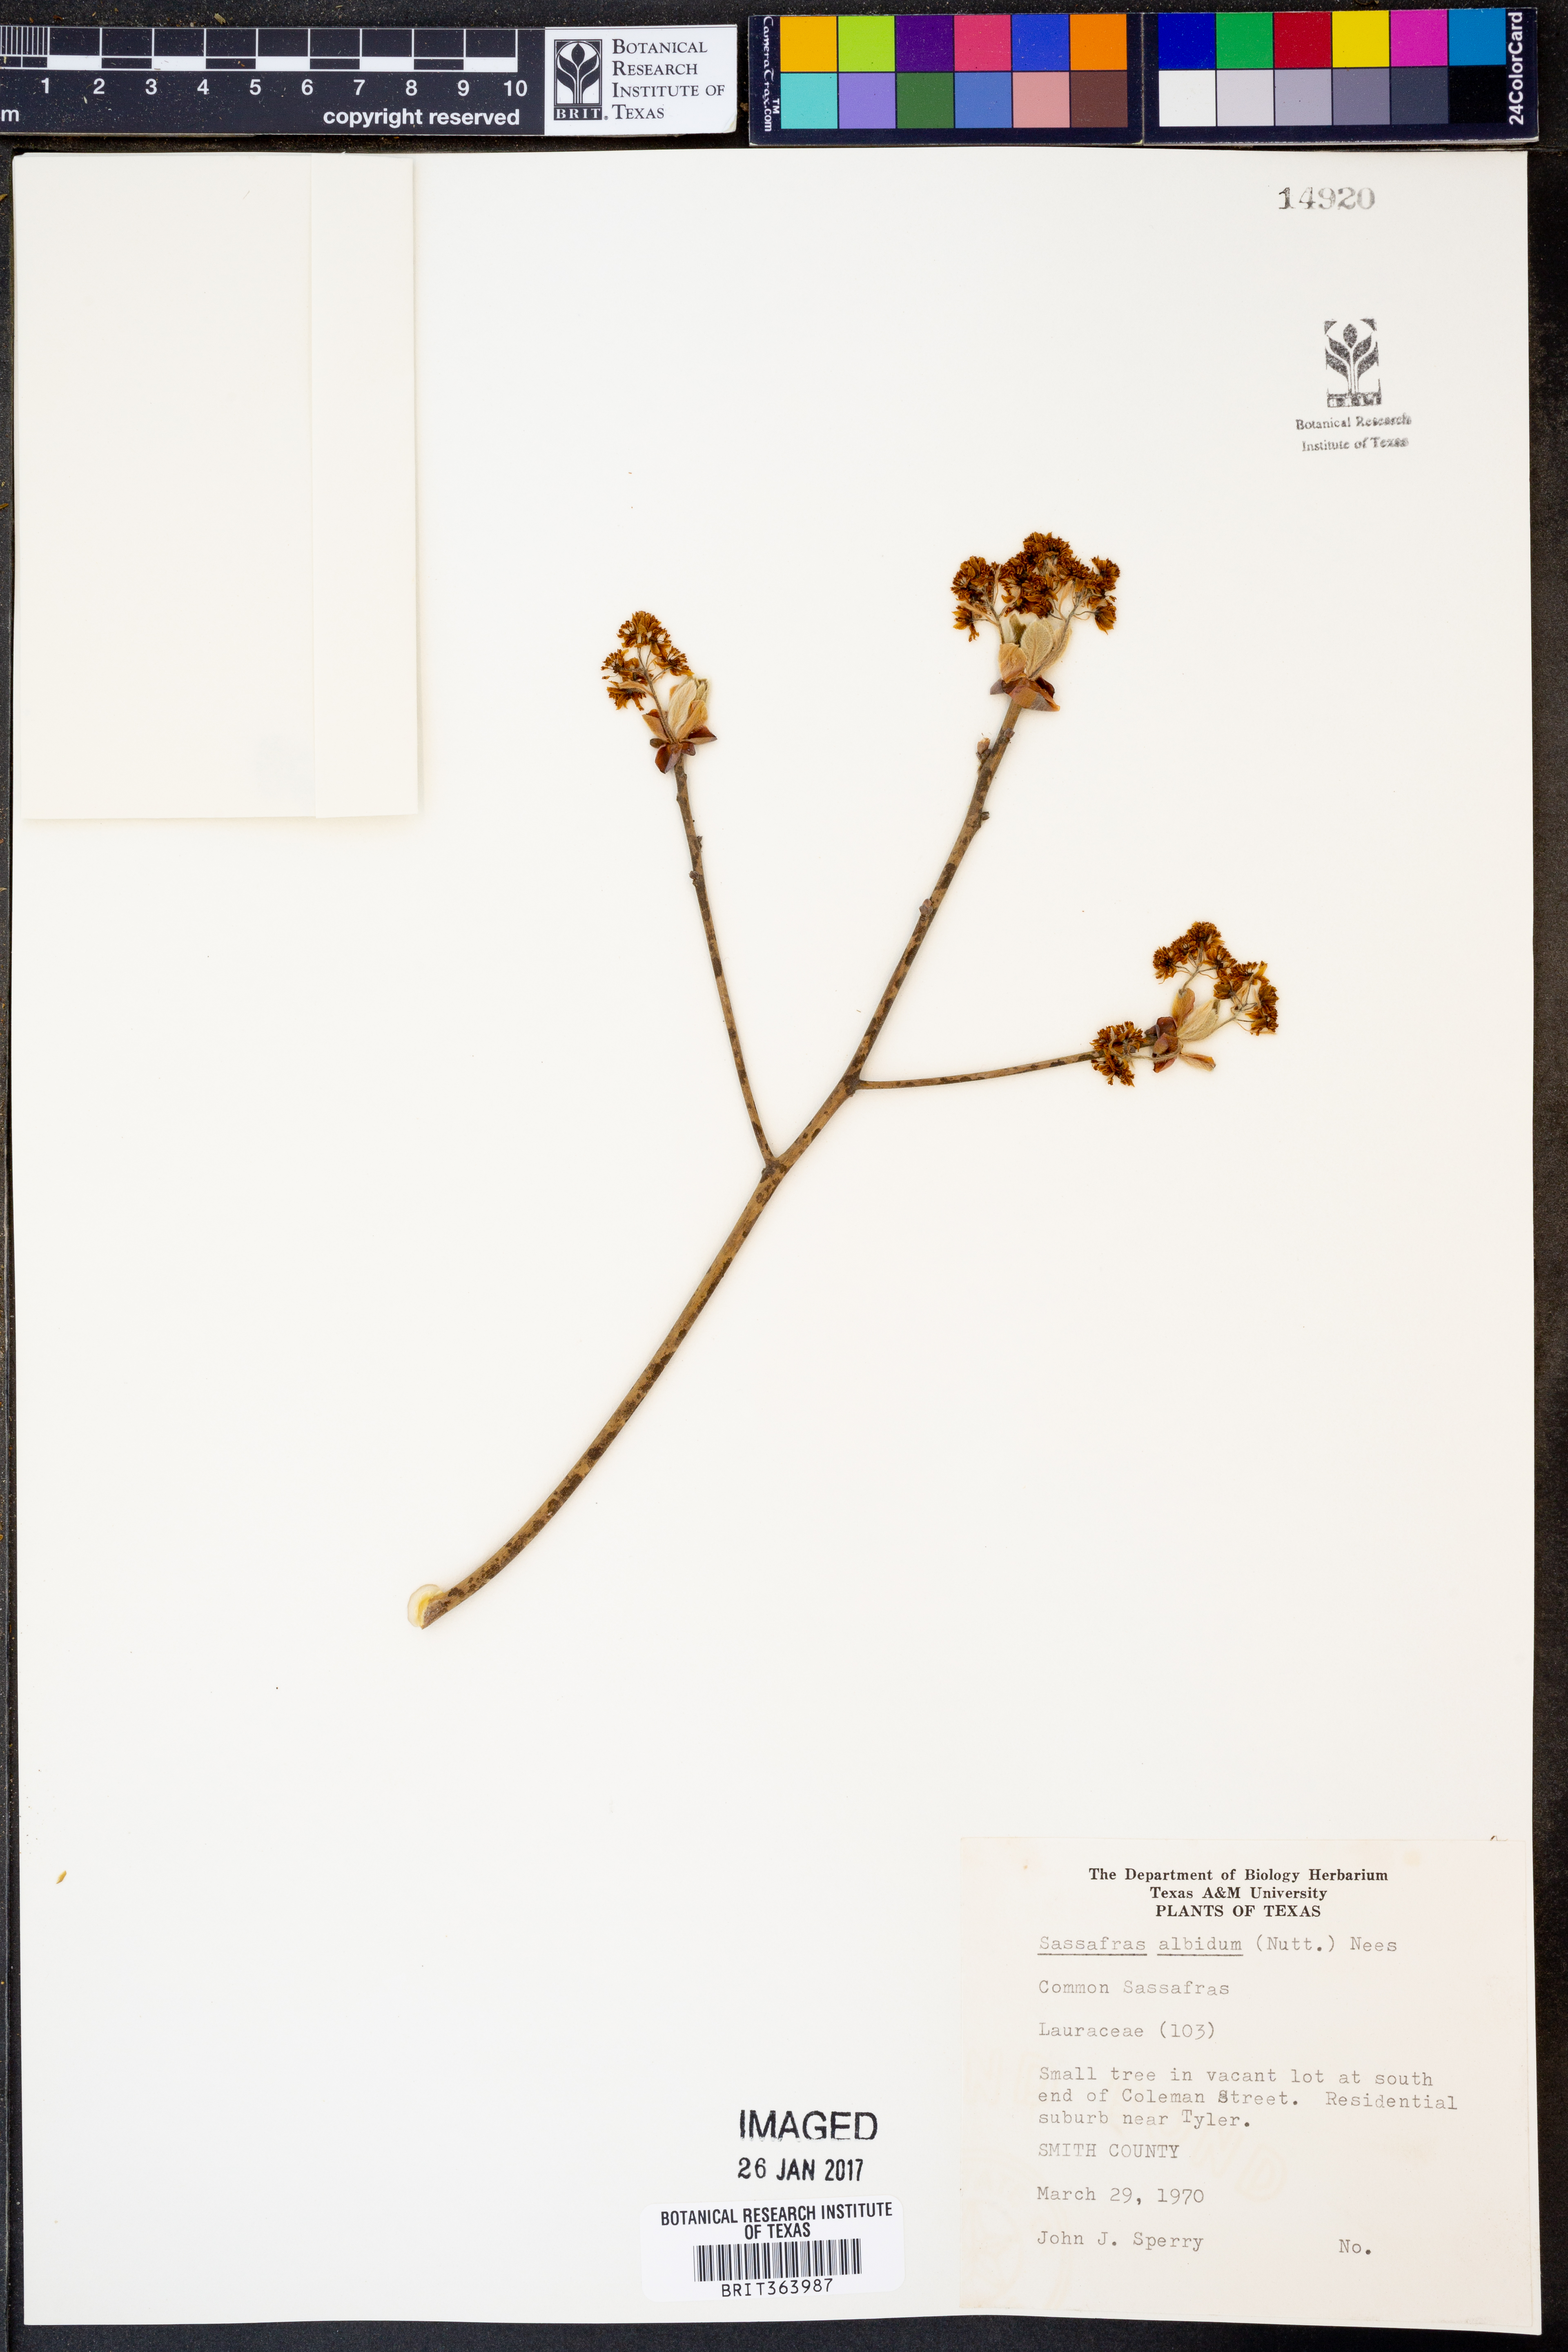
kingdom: Plantae
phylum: Tracheophyta
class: Magnoliopsida
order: Laurales
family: Lauraceae
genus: Sassafras
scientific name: Sassafras albidum
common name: Sassafras
